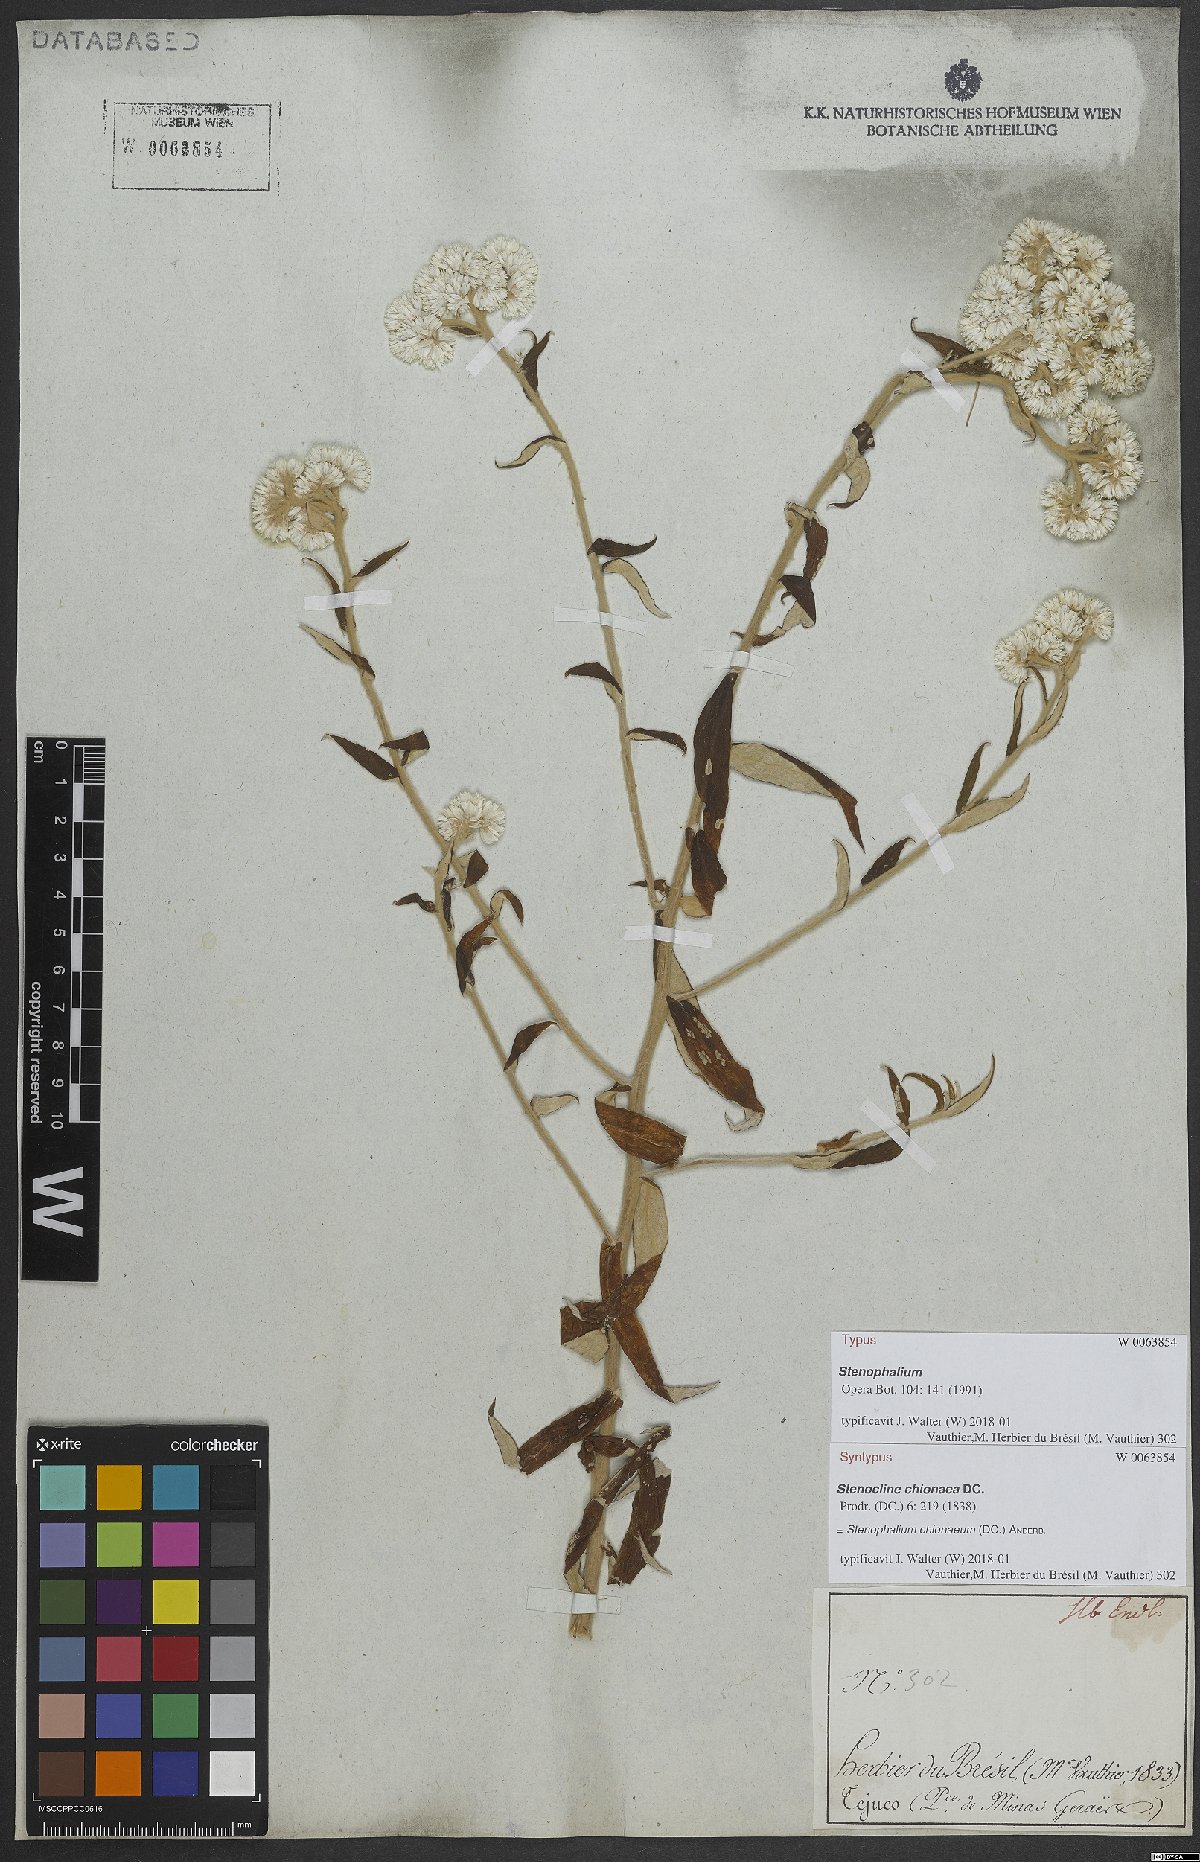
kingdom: Plantae
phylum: Tracheophyta
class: Magnoliopsida
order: Asterales
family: Asteraceae
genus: Achyrocline
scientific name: Achyrocline chionaea
